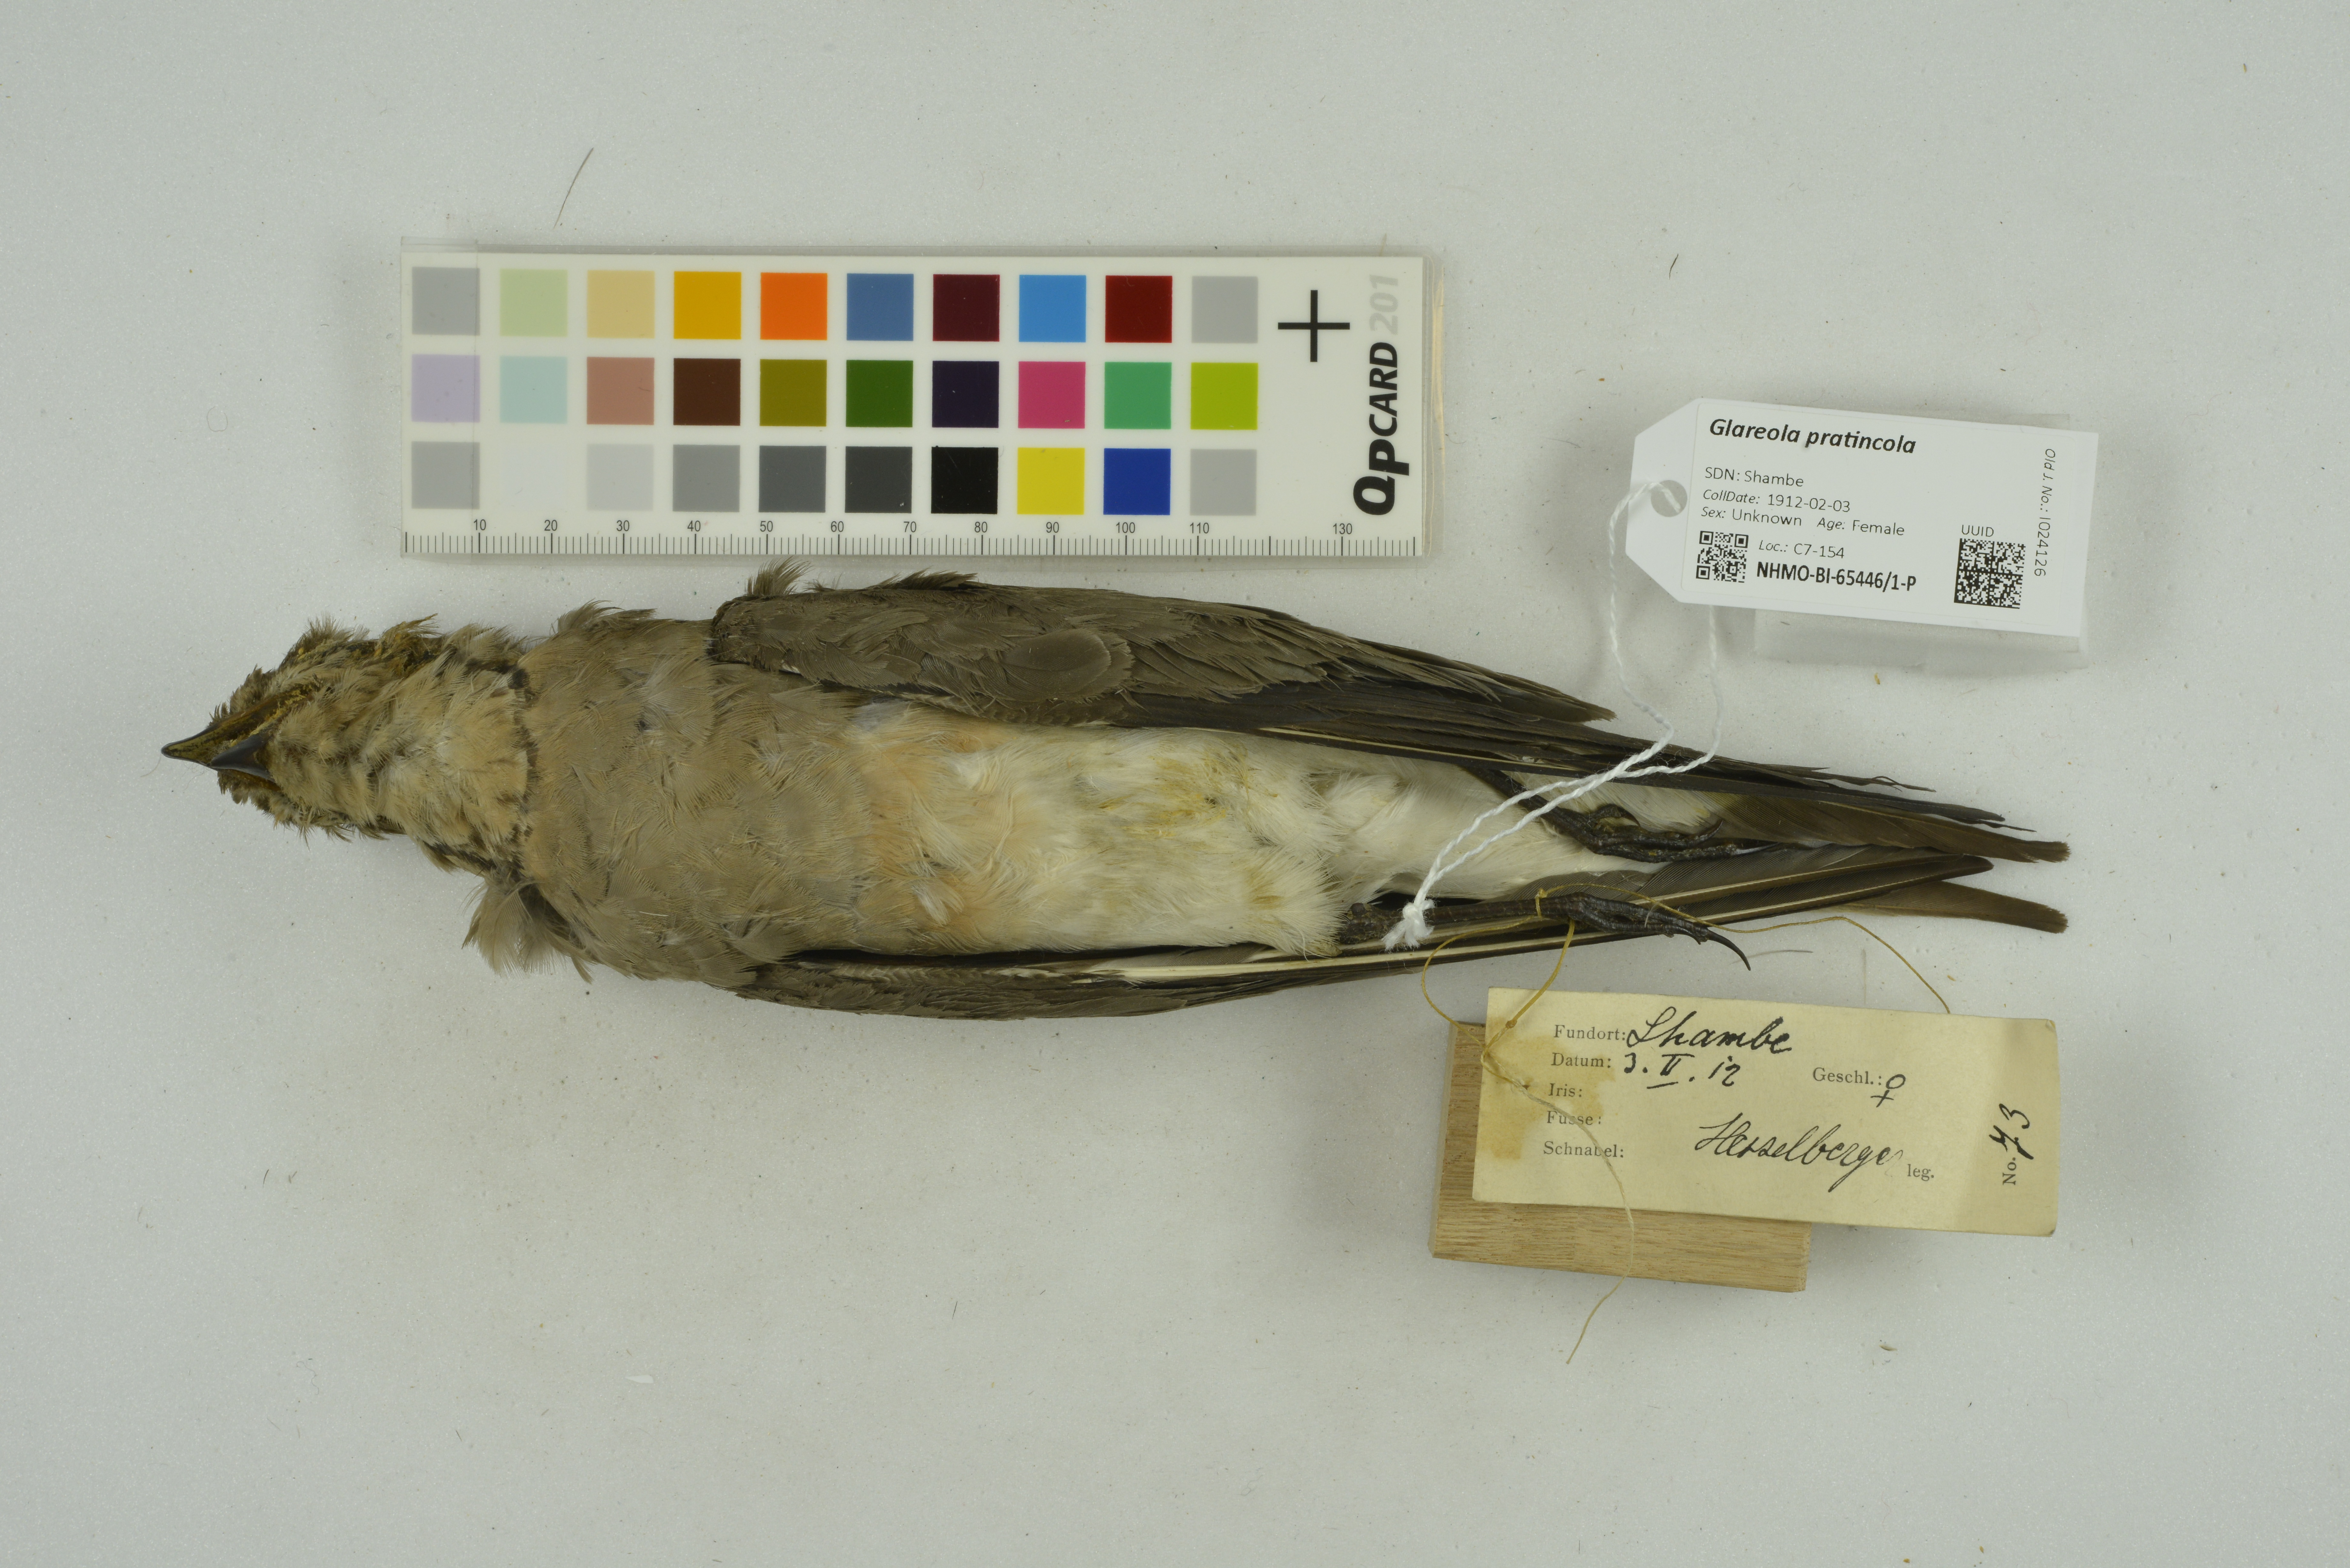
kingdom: Animalia
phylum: Chordata
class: Aves
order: Charadriiformes
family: Glareolidae
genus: Glareola
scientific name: Glareola pratincola
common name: Collared pratincole
